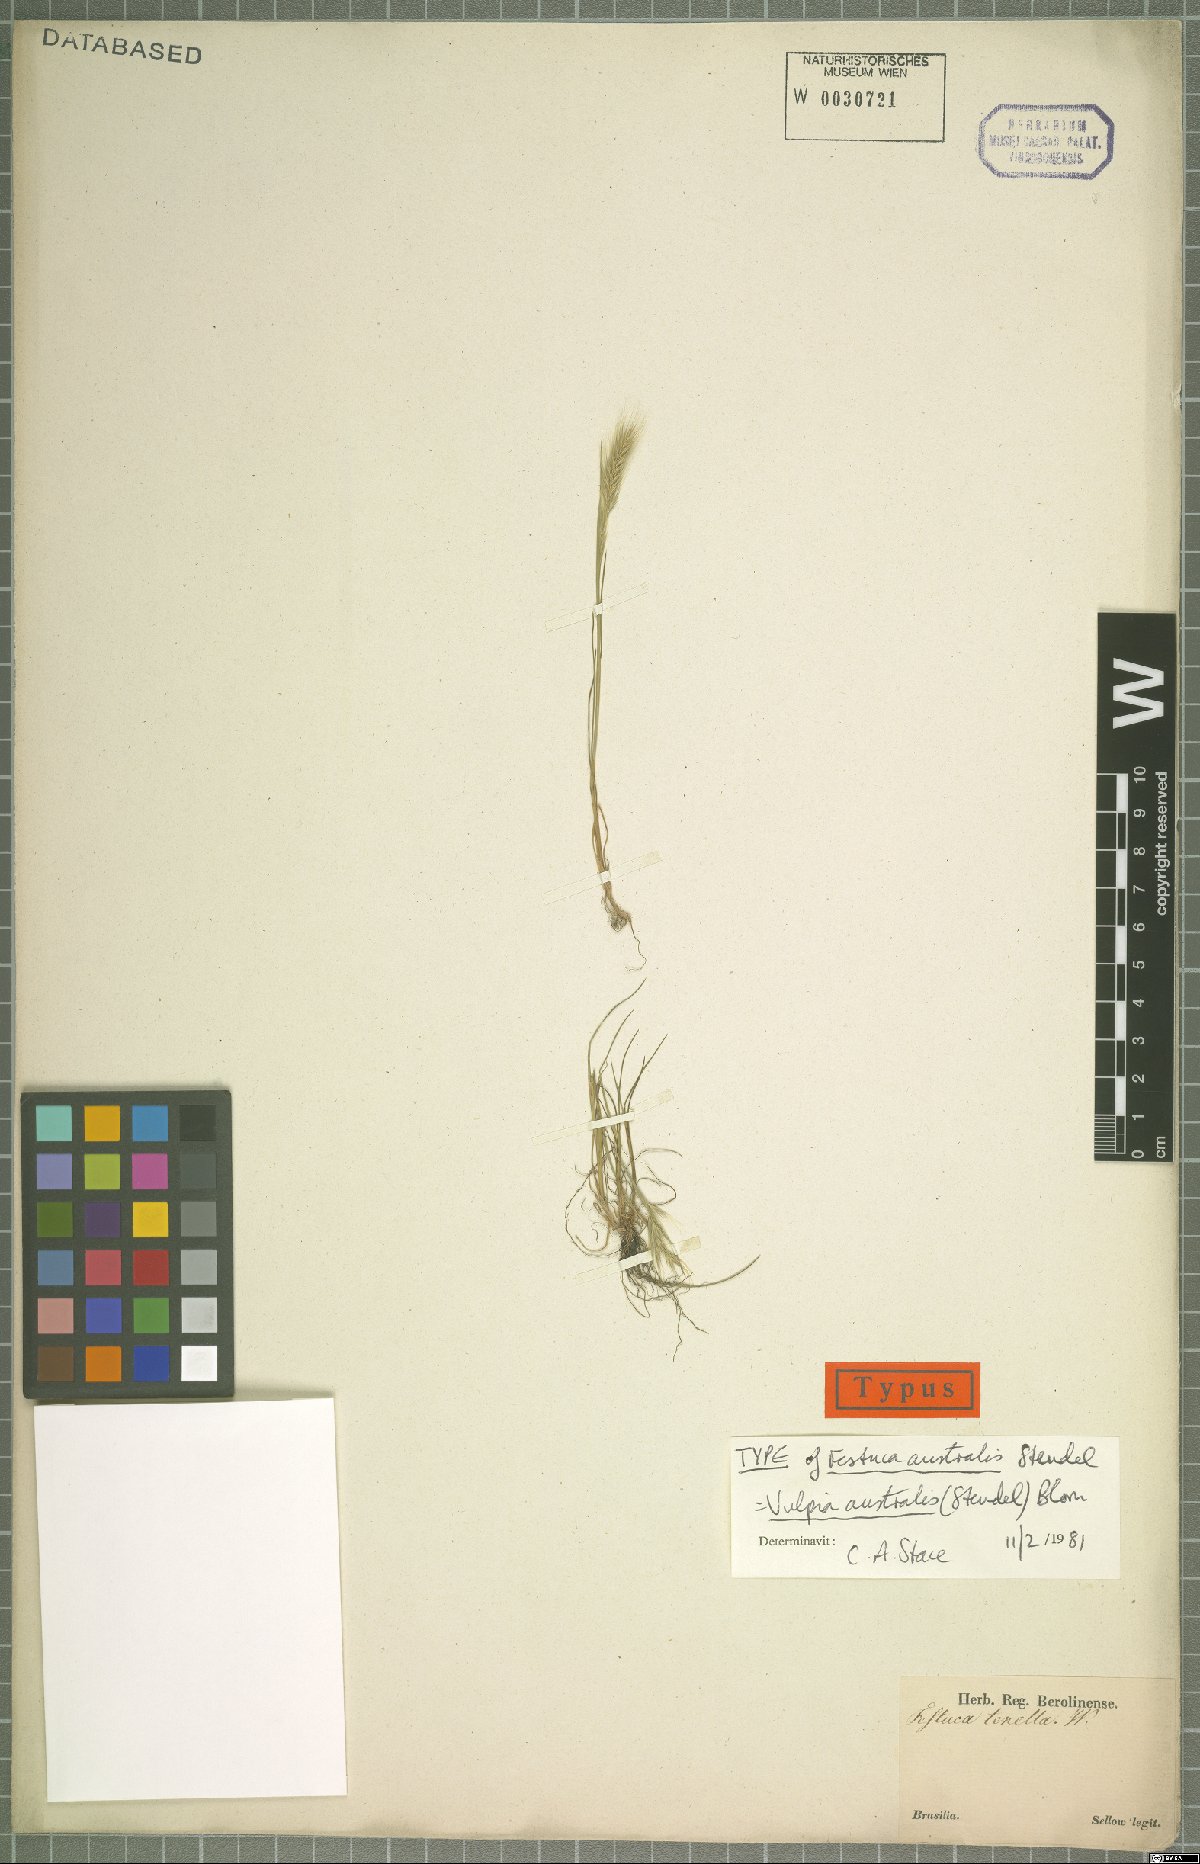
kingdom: Plantae
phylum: Tracheophyta
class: Liliopsida
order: Poales
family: Poaceae
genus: Festuca
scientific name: Festuca australis
